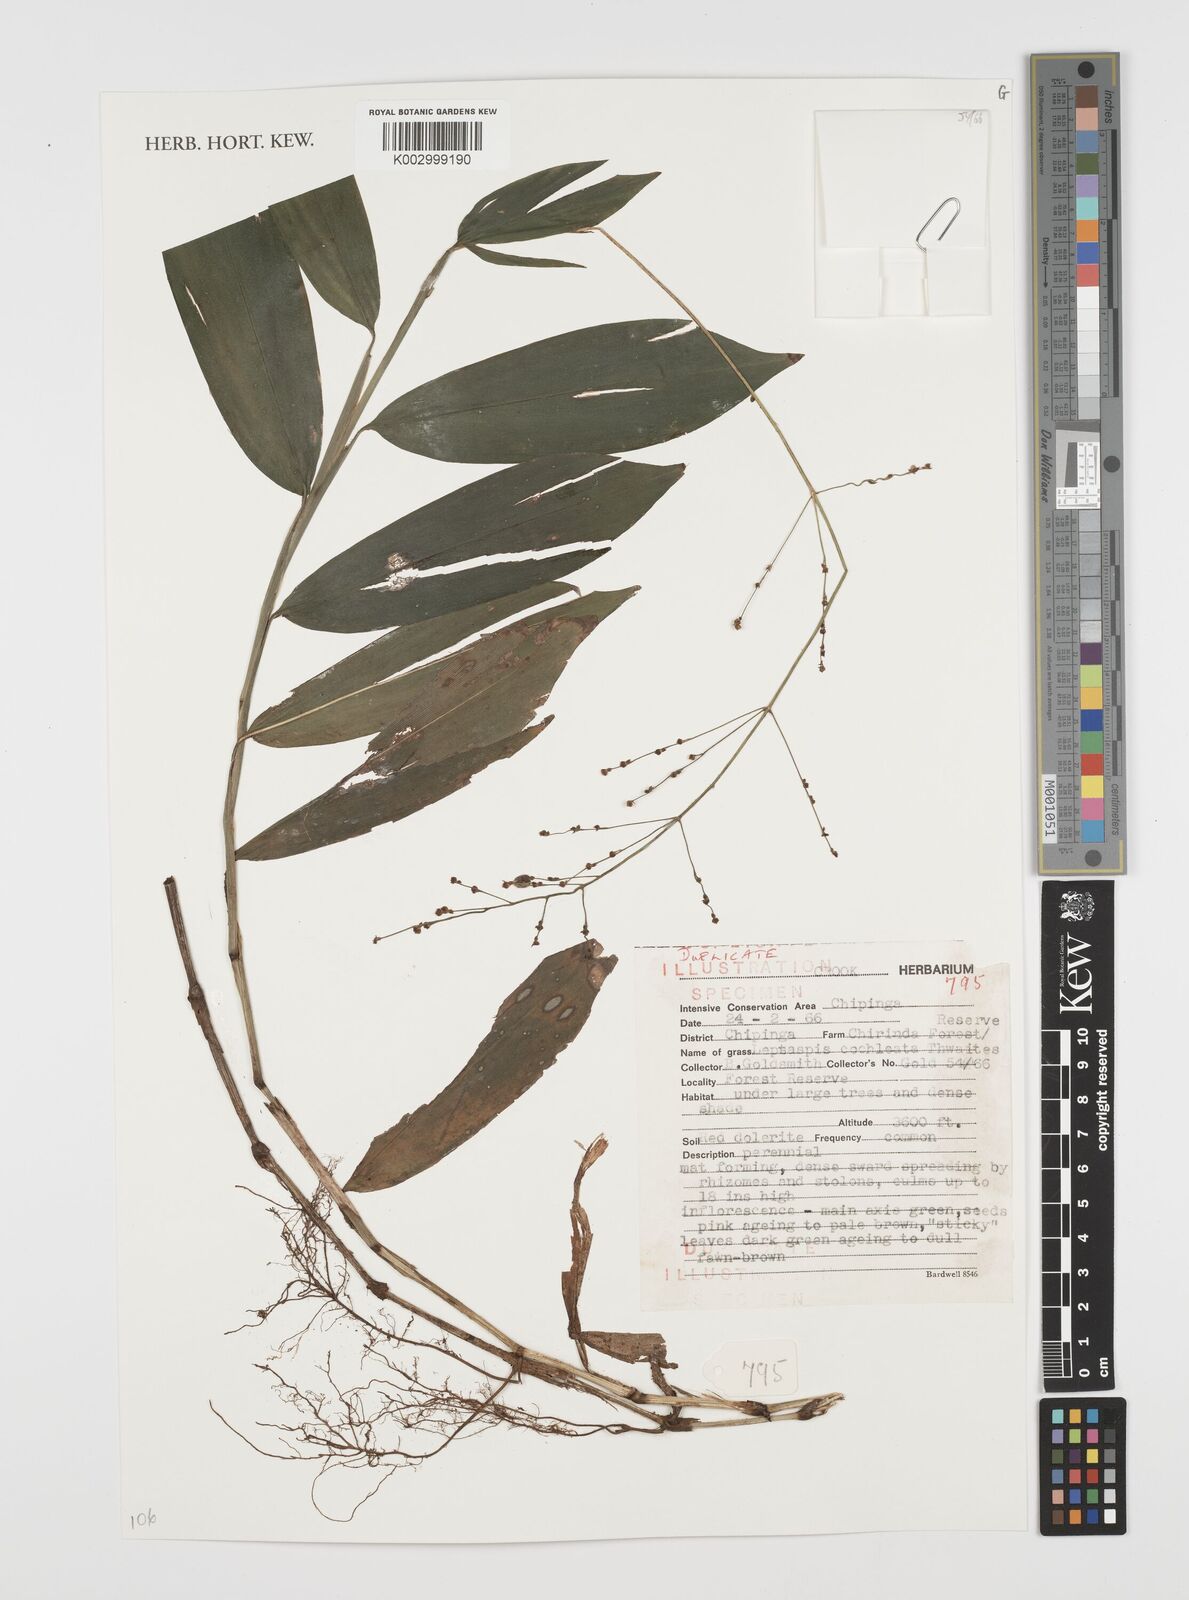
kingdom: Plantae
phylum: Tracheophyta
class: Liliopsida
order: Poales
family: Poaceae
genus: Leptaspis
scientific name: Leptaspis zeylanica
